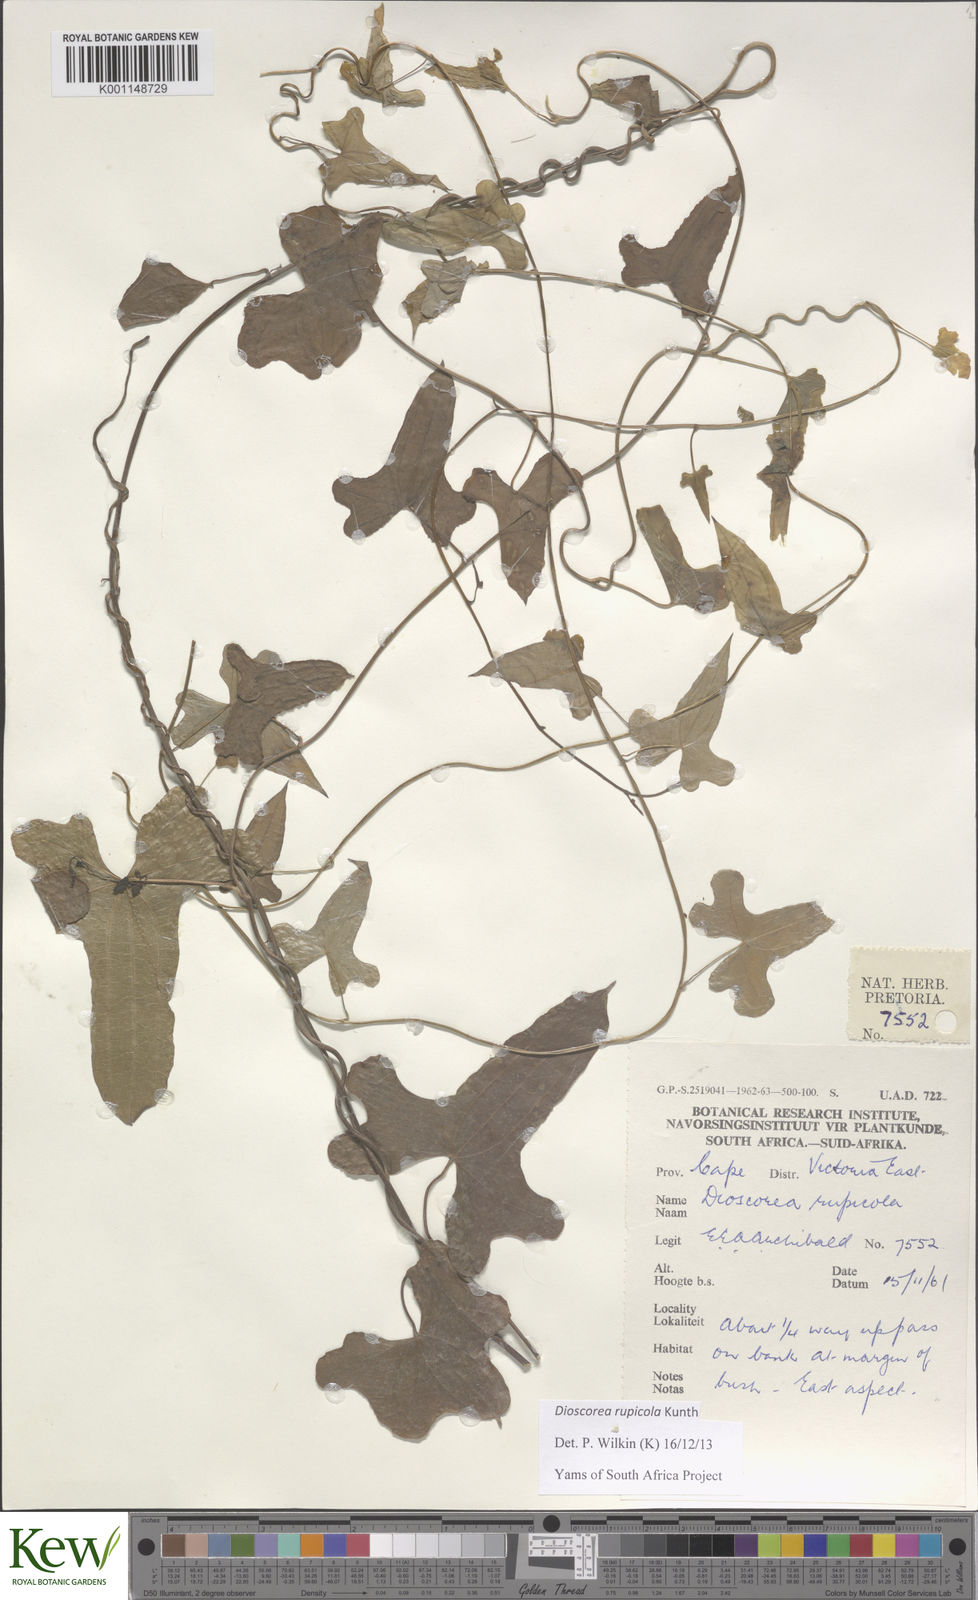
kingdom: Plantae
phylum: Tracheophyta
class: Liliopsida
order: Dioscoreales
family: Dioscoreaceae
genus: Dioscorea
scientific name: Dioscorea rupicola
